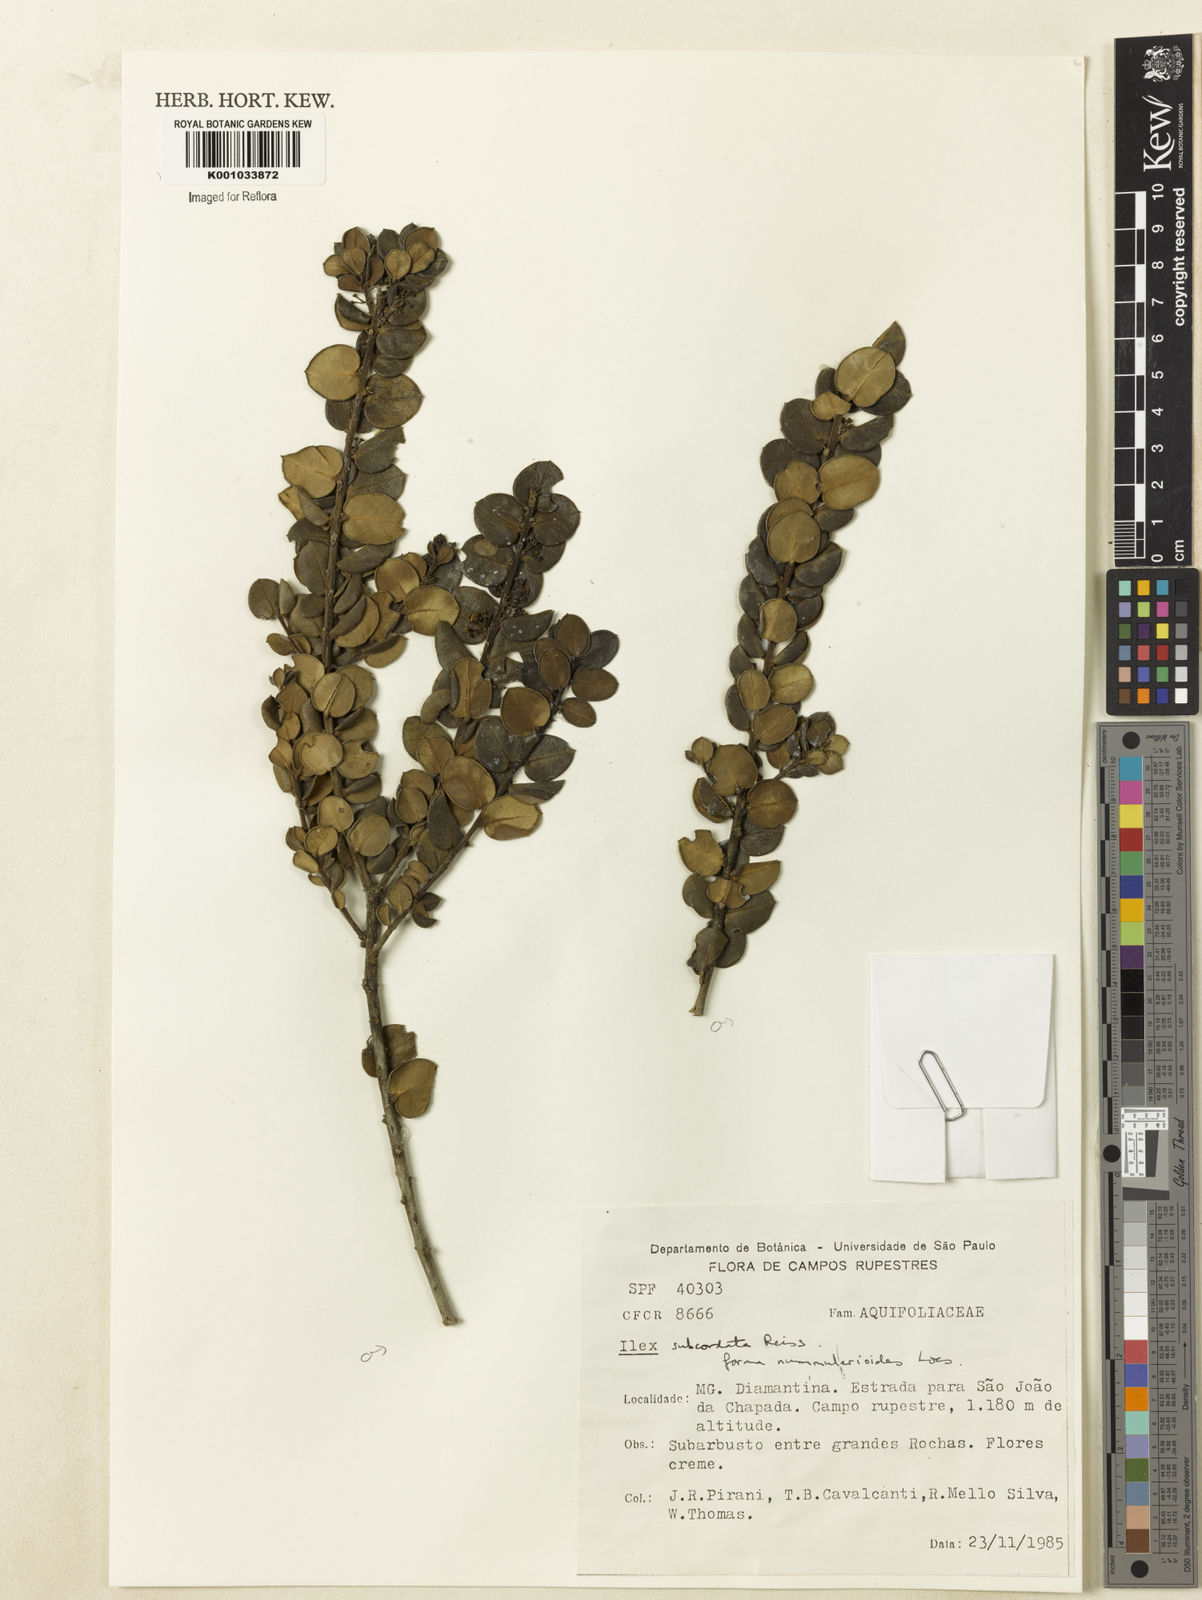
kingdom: Plantae
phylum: Tracheophyta
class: Magnoliopsida
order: Aquifoliales
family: Aquifoliaceae
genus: Ilex
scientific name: Ilex subcordata
